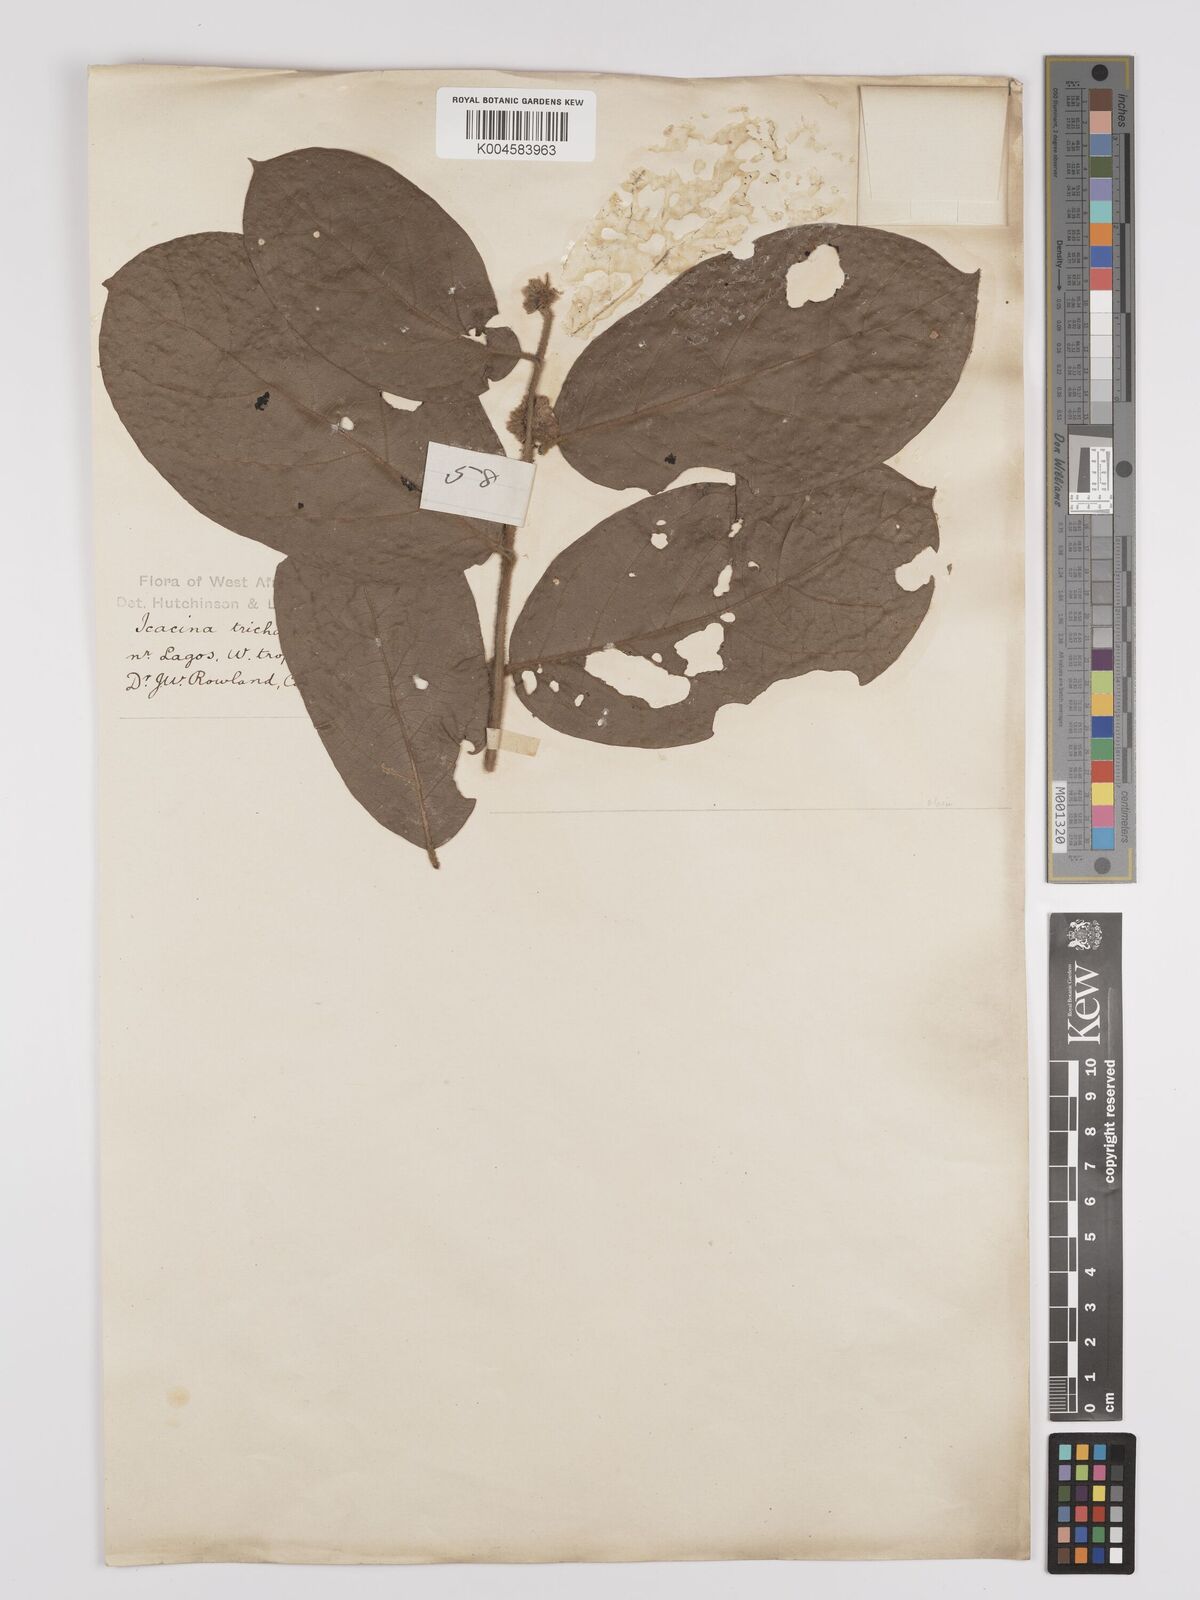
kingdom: Plantae
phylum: Tracheophyta
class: Magnoliopsida
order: Icacinales
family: Icacinaceae
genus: Icacina
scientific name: Icacina trichantha
